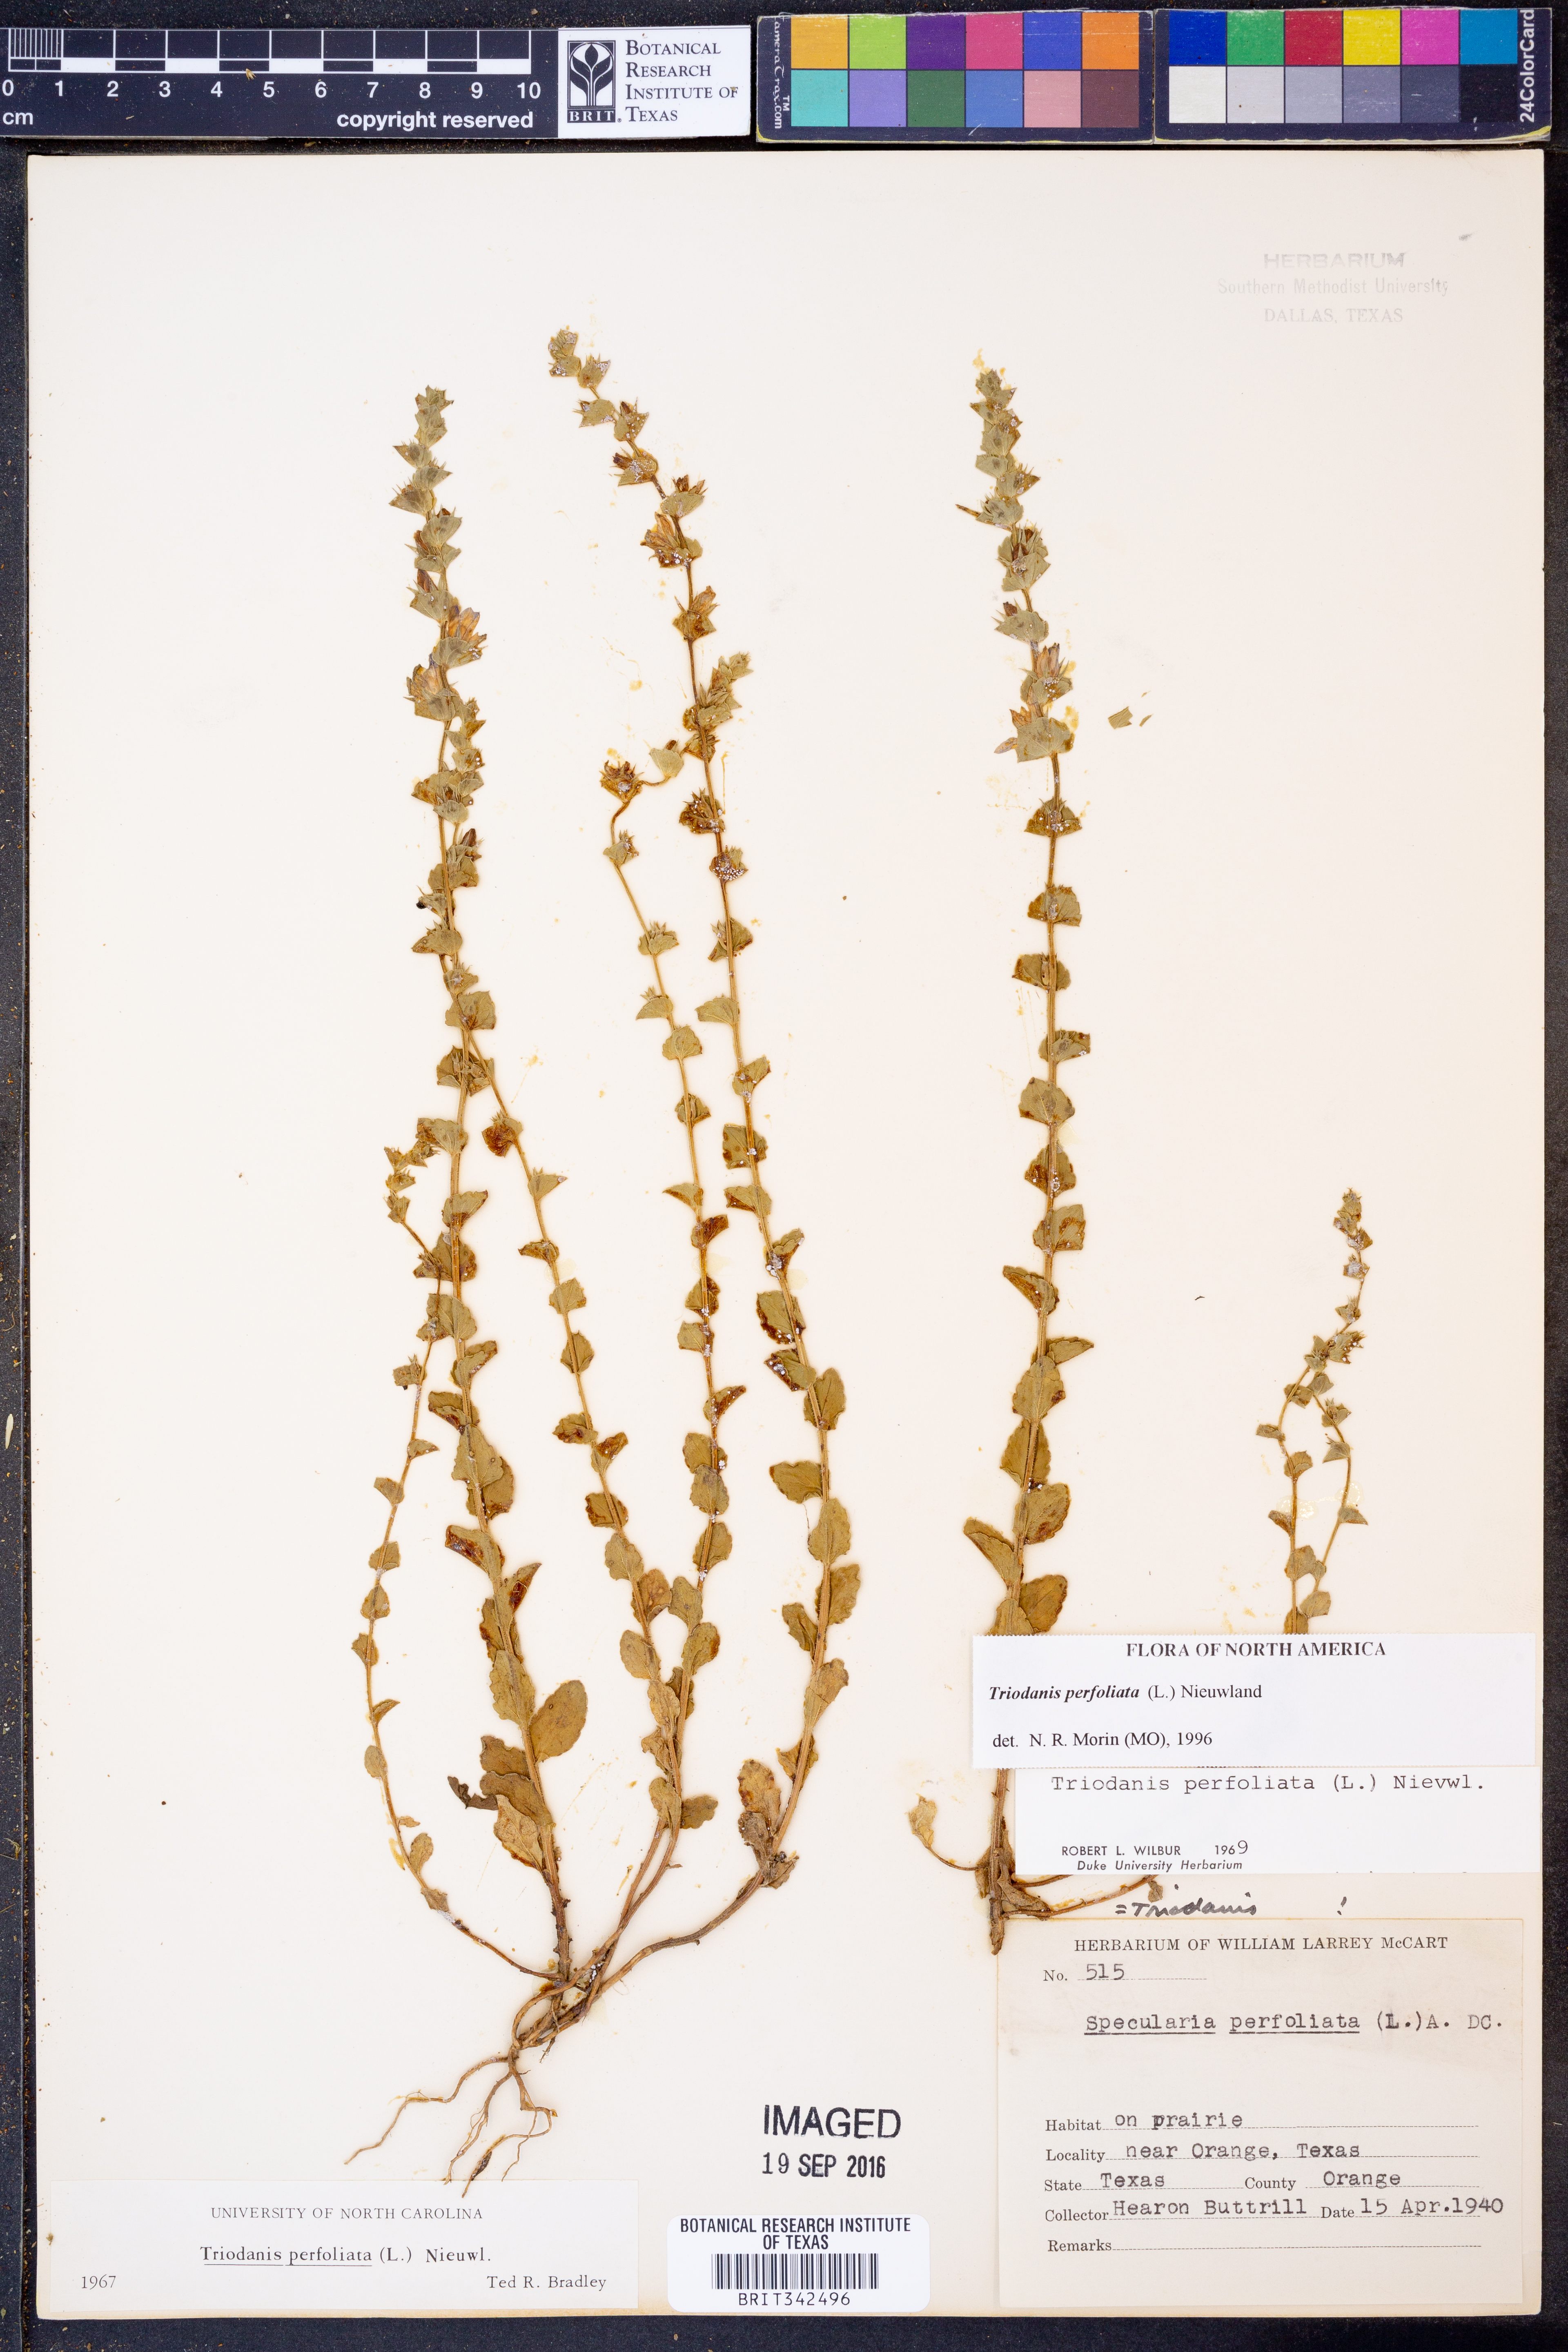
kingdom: Plantae
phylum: Tracheophyta
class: Magnoliopsida
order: Asterales
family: Campanulaceae
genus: Triodanis
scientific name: Triodanis perfoliata
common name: Clasping venus' looking-glass
